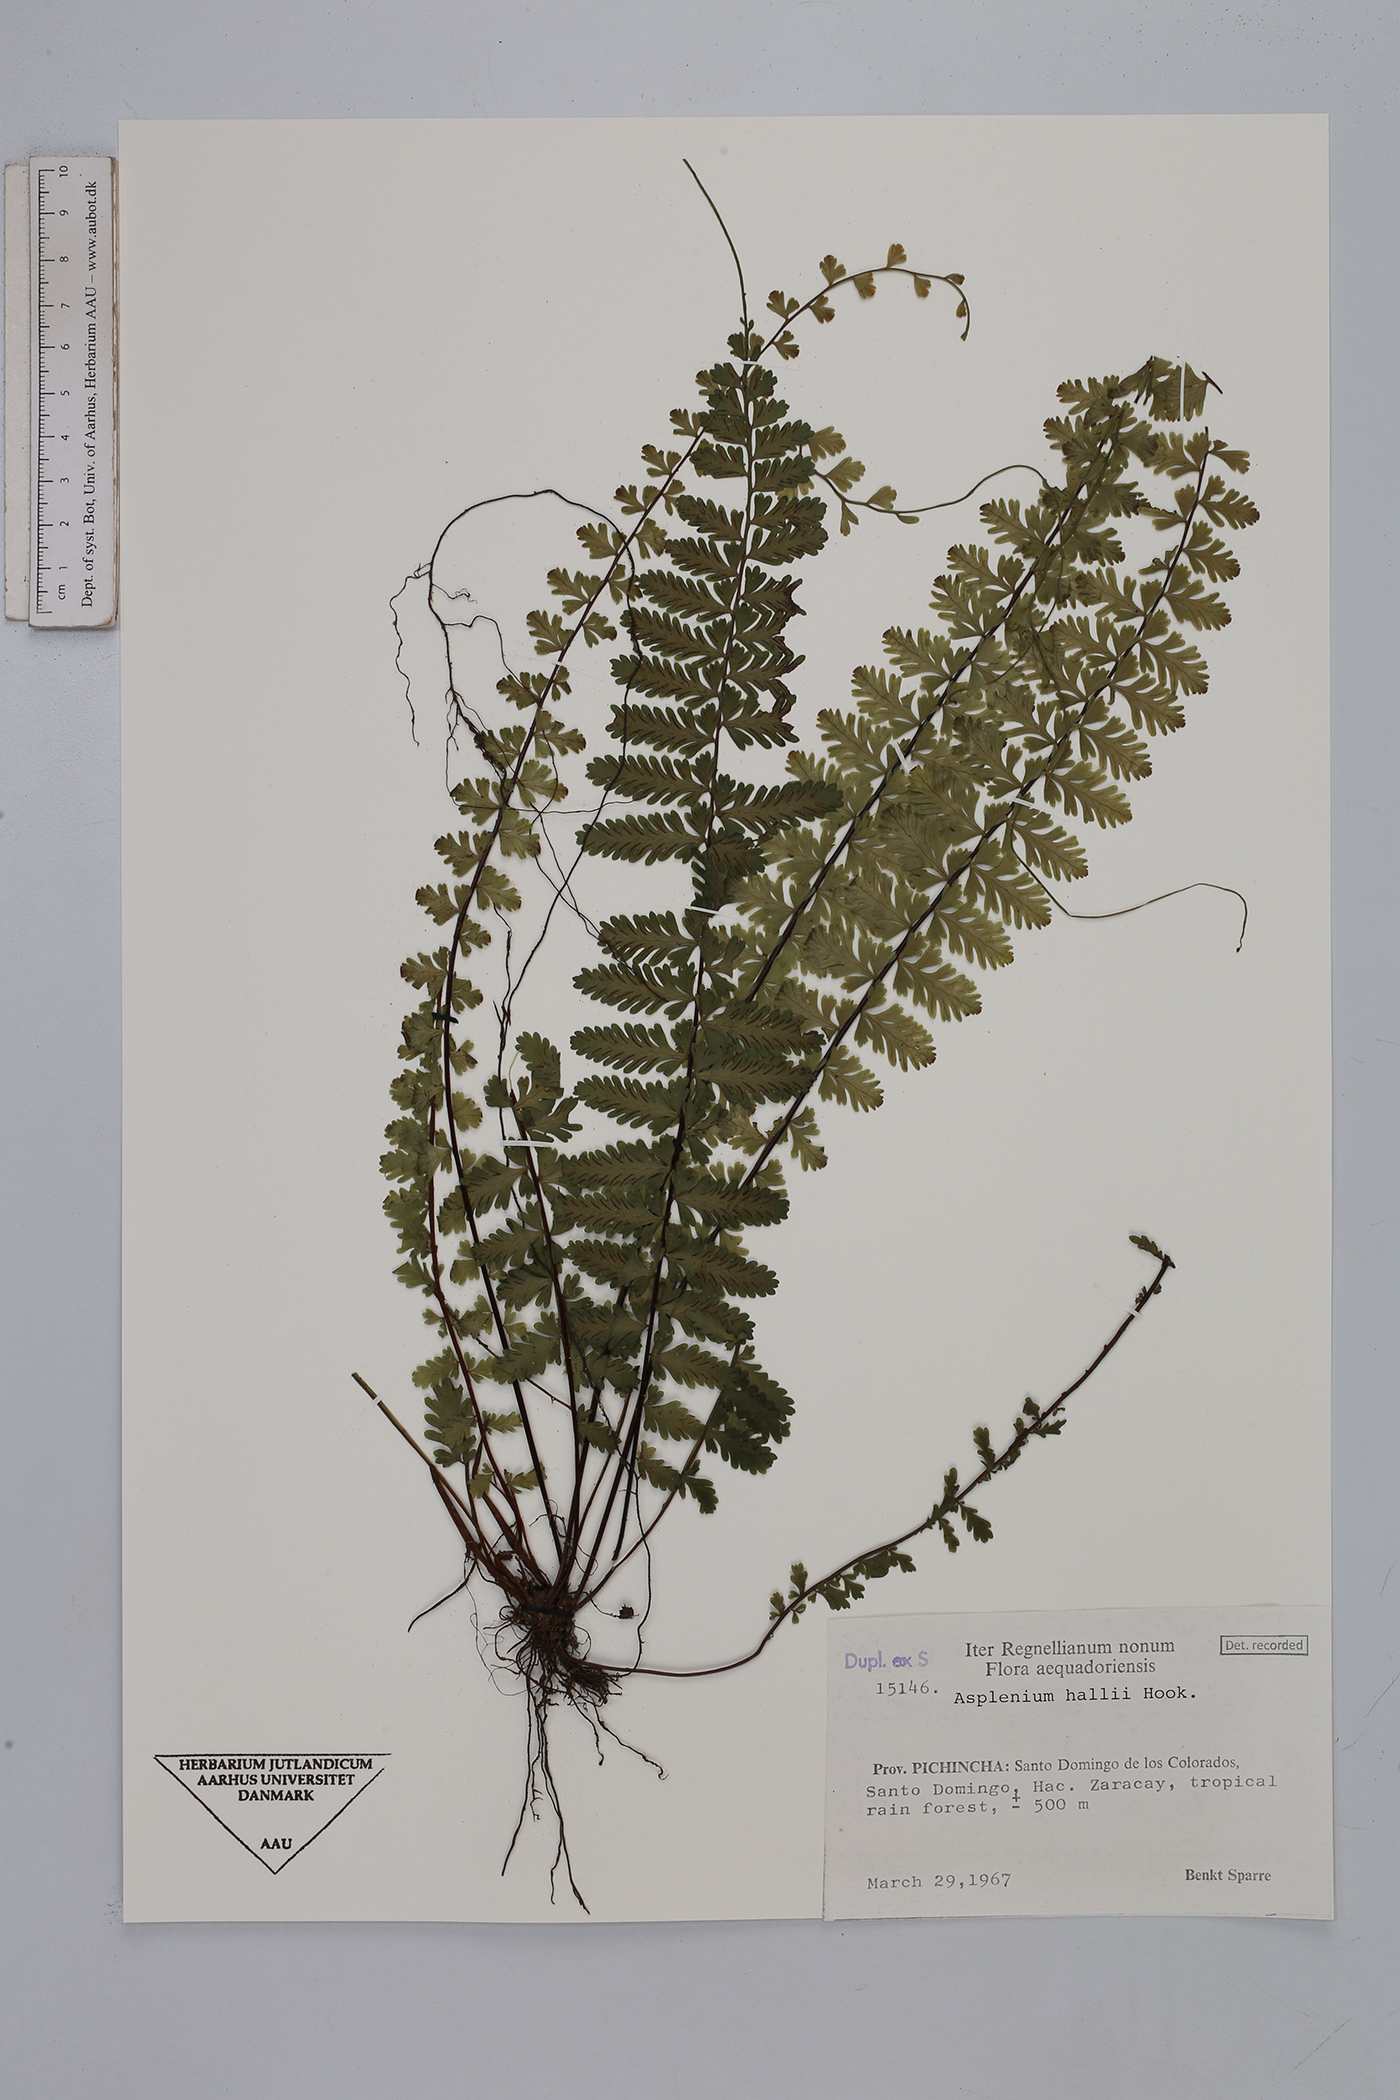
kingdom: Plantae
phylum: Tracheophyta
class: Polypodiopsida
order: Polypodiales
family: Aspleniaceae
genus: Asplenium
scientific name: Asplenium hallii
